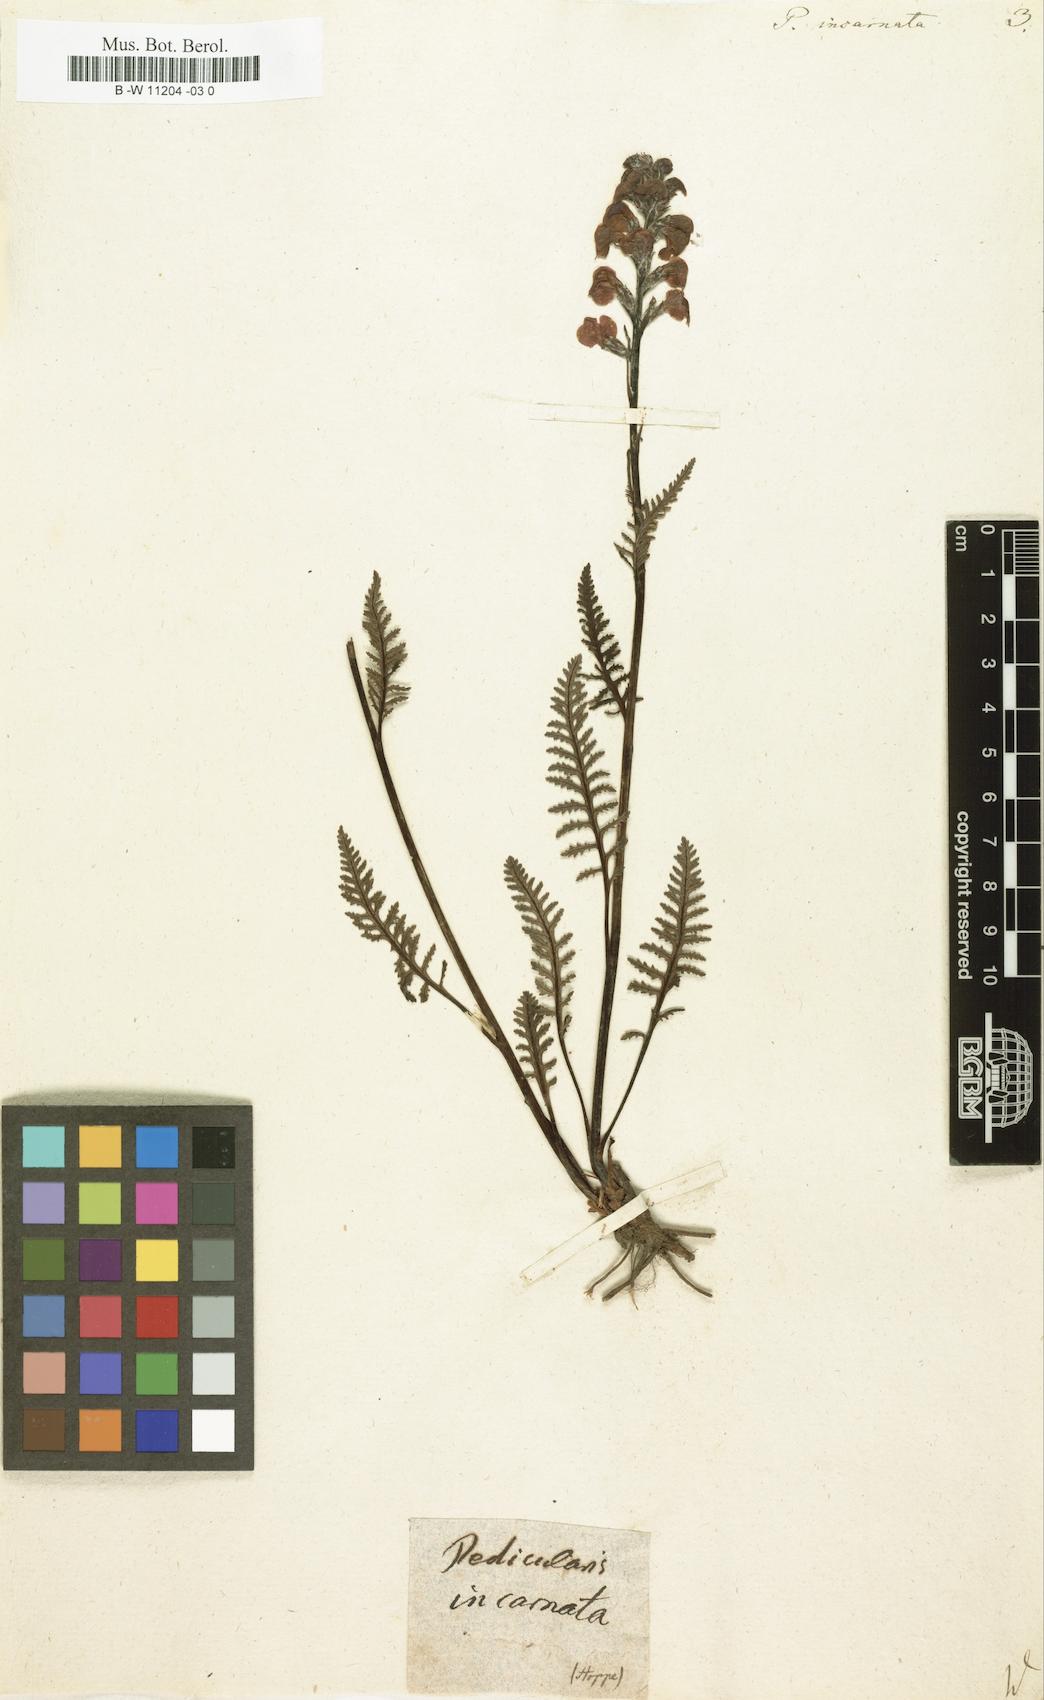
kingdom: Plantae
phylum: Tracheophyta
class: Magnoliopsida
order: Lamiales
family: Orobanchaceae
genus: Pedicularis
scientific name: Pedicularis incarnata
